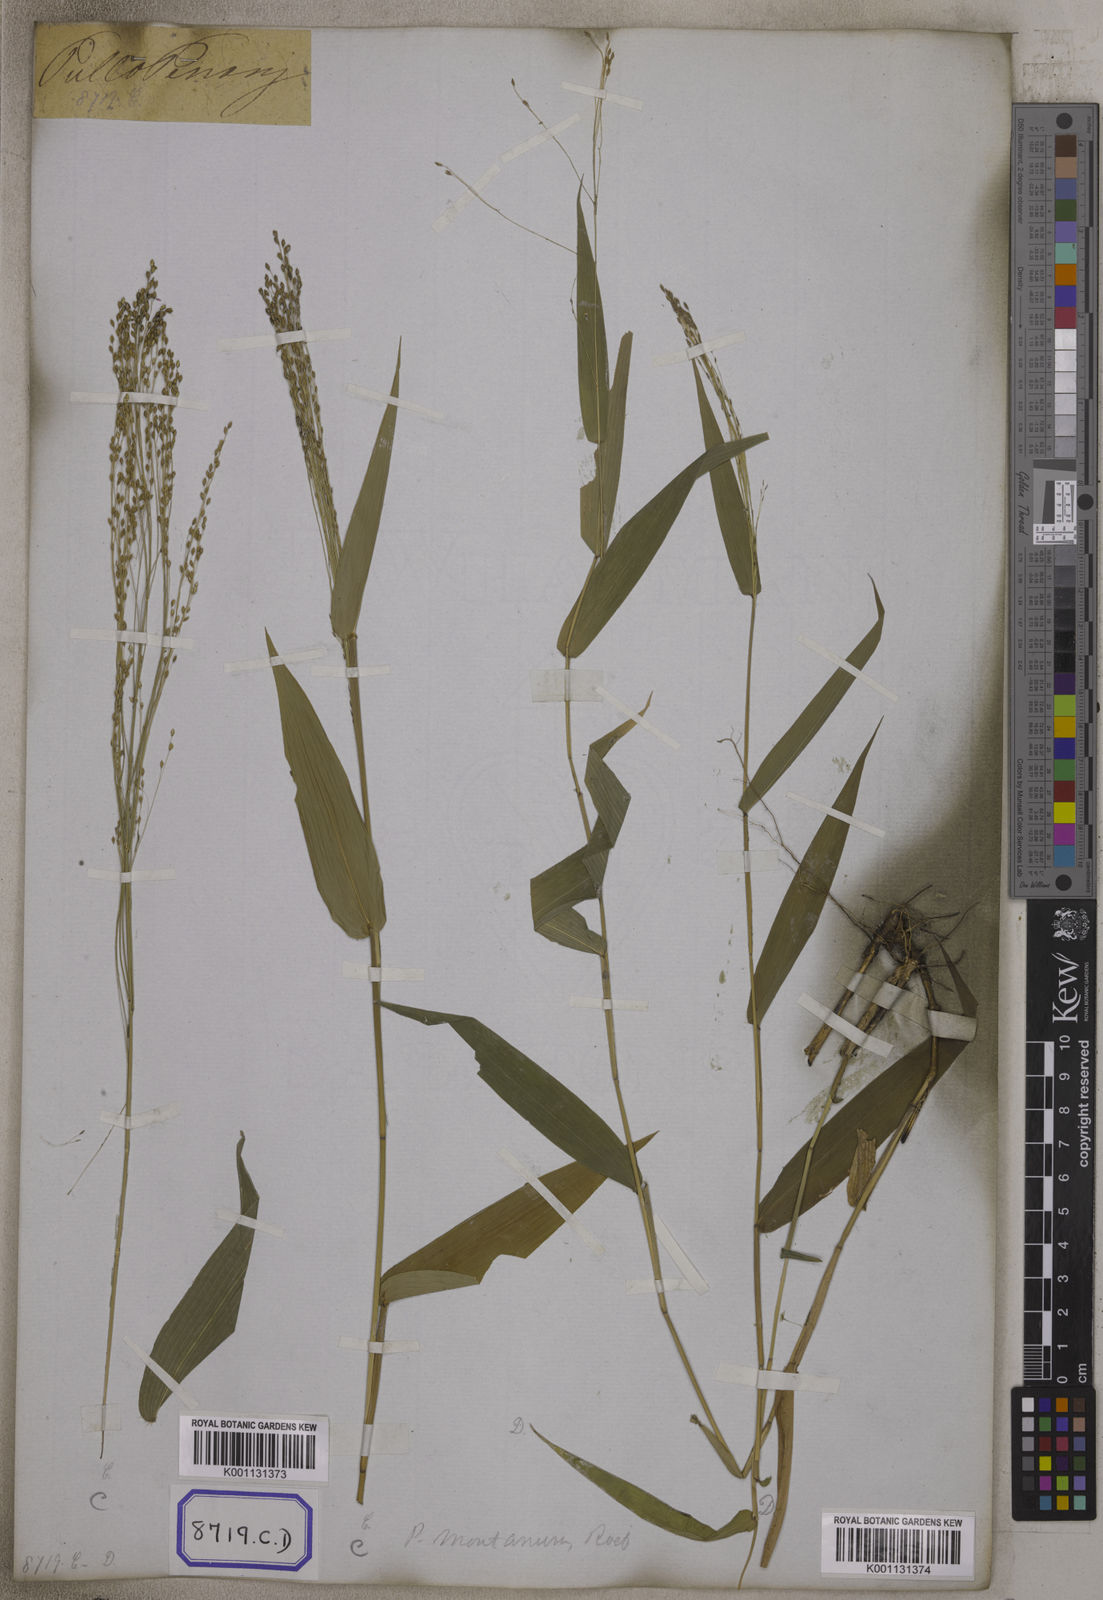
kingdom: Plantae
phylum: Tracheophyta
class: Liliopsida
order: Poales
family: Poaceae
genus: Panicum
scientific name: Panicum
